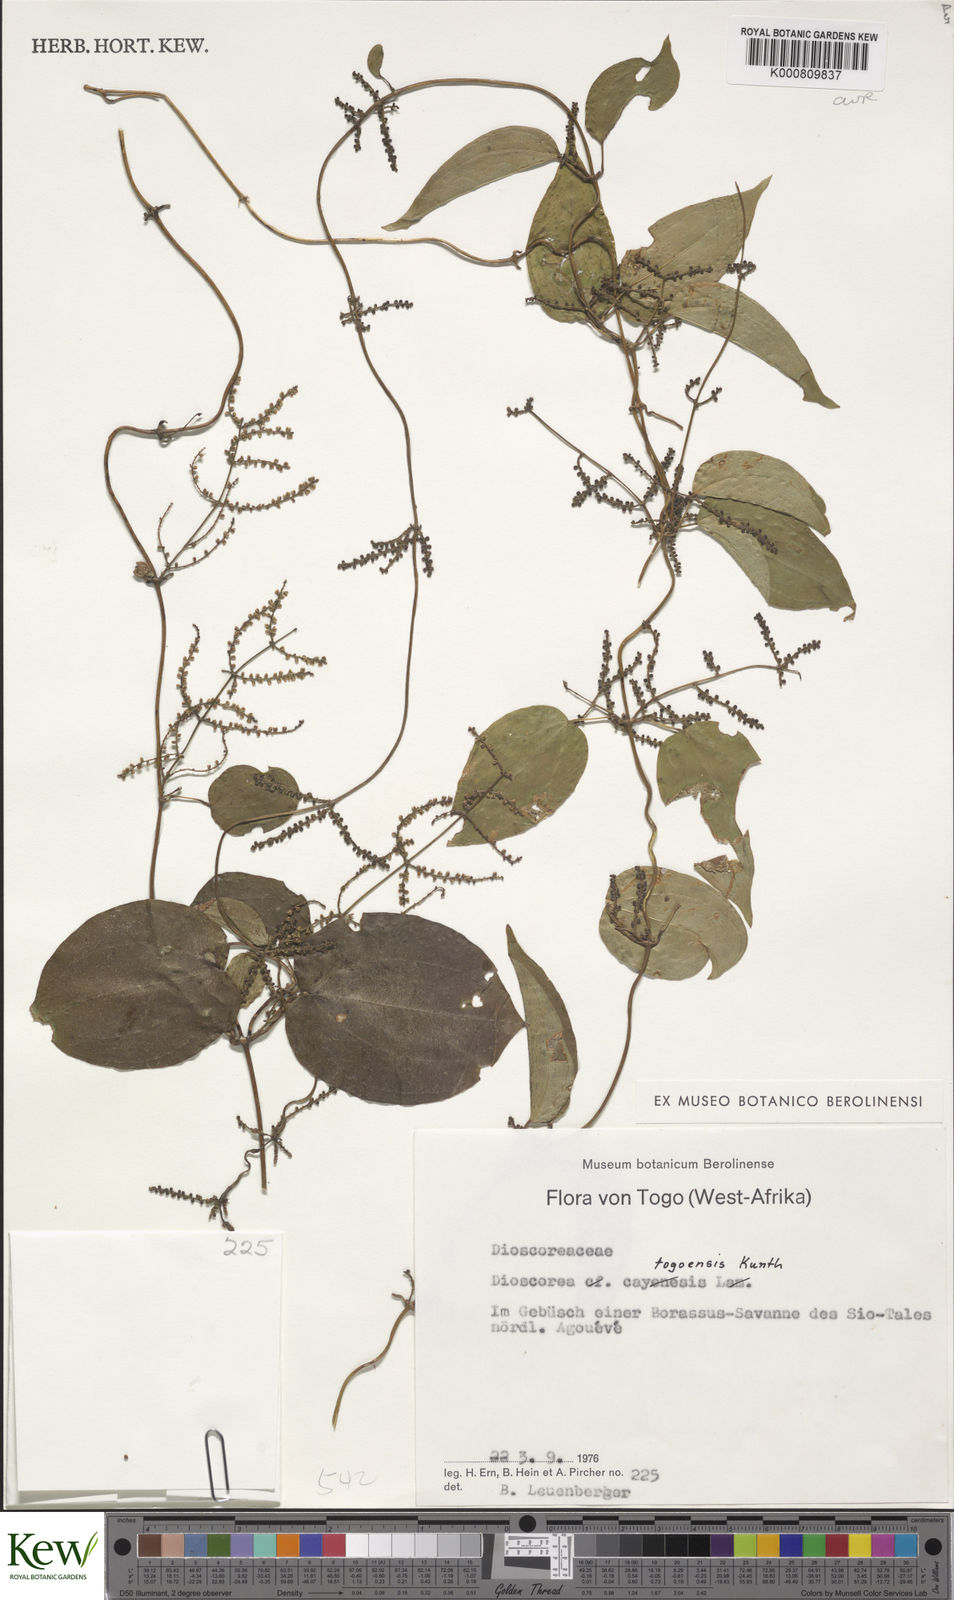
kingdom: Plantae
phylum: Tracheophyta
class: Liliopsida
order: Dioscoreales
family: Dioscoreaceae
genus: Dioscorea
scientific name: Dioscorea togoensis
